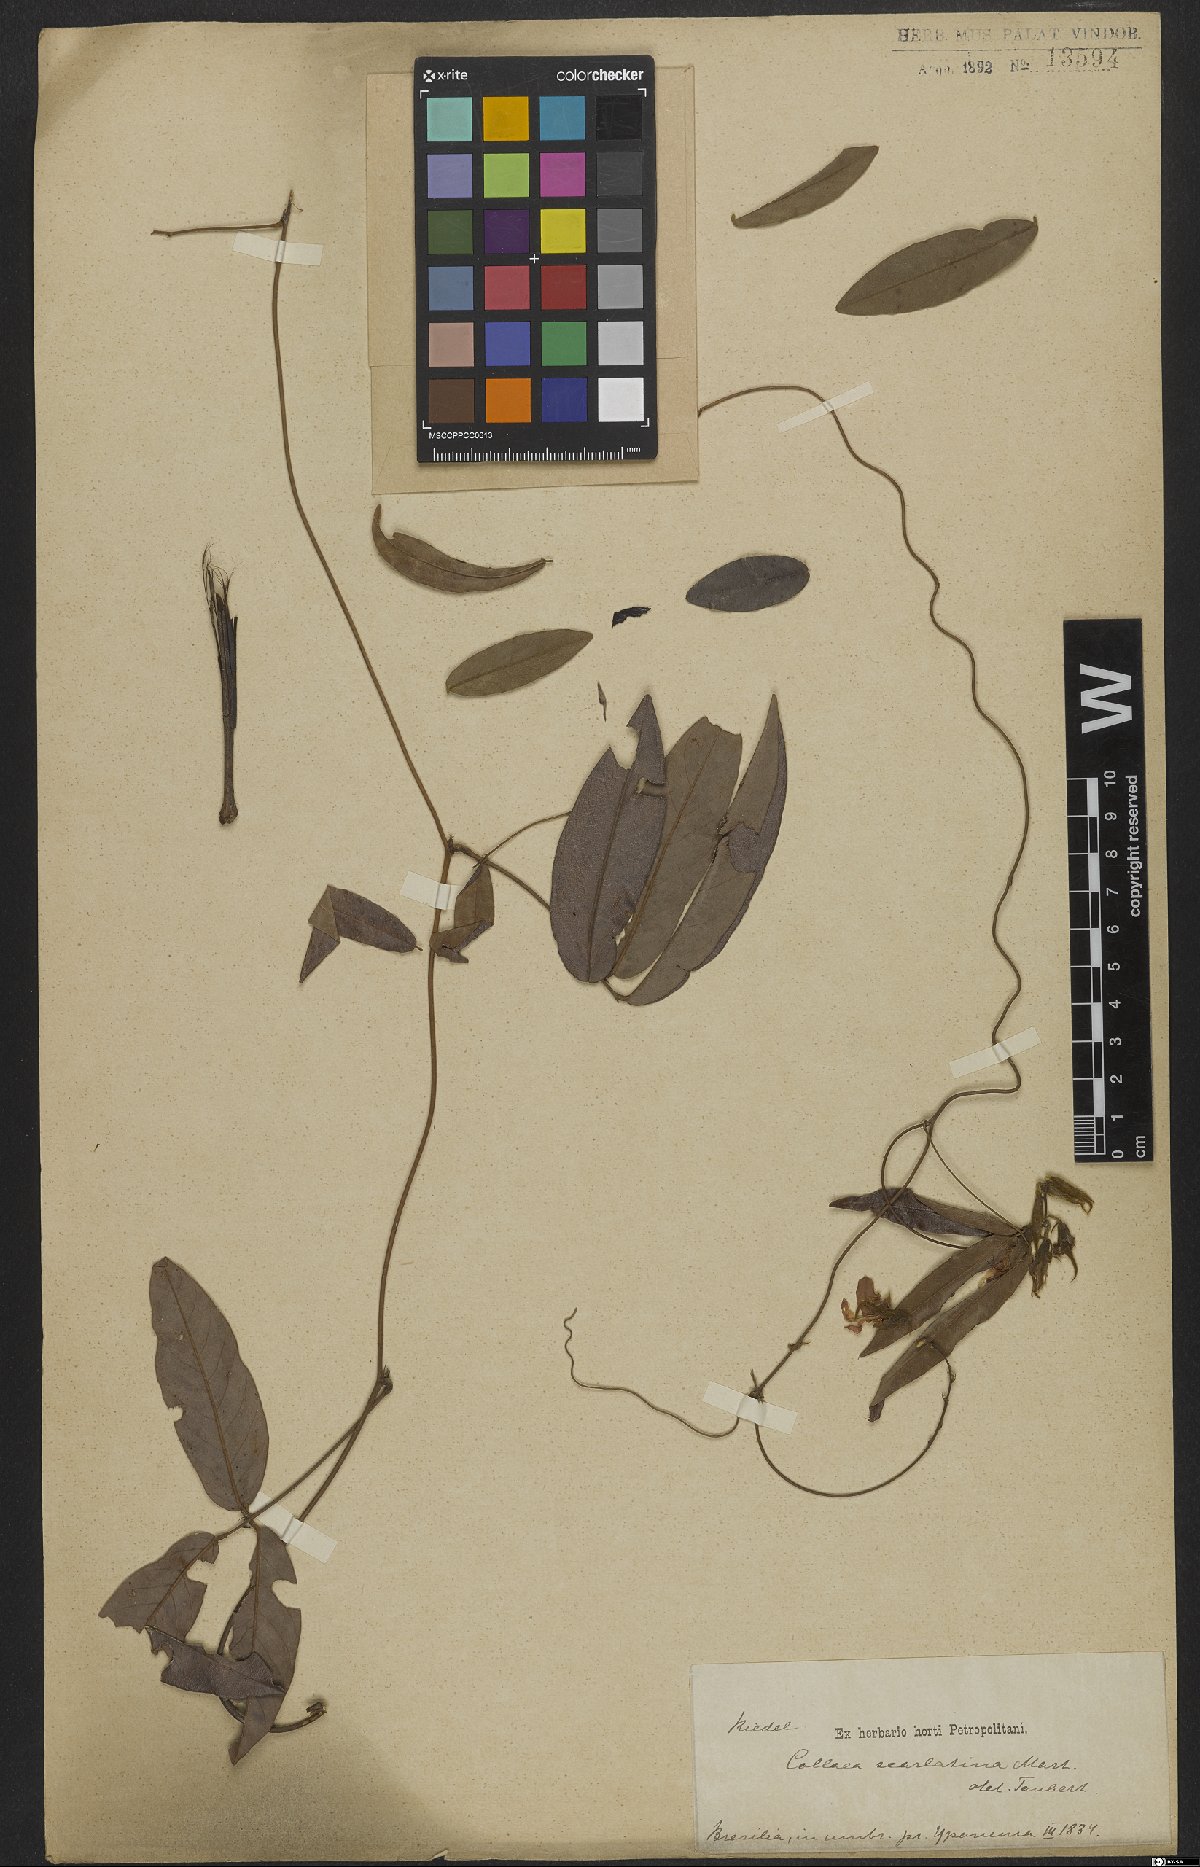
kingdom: Plantae
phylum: Tracheophyta
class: Magnoliopsida
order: Fabales
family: Fabaceae
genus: Betencourtia
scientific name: Betencourtia scarlatina
